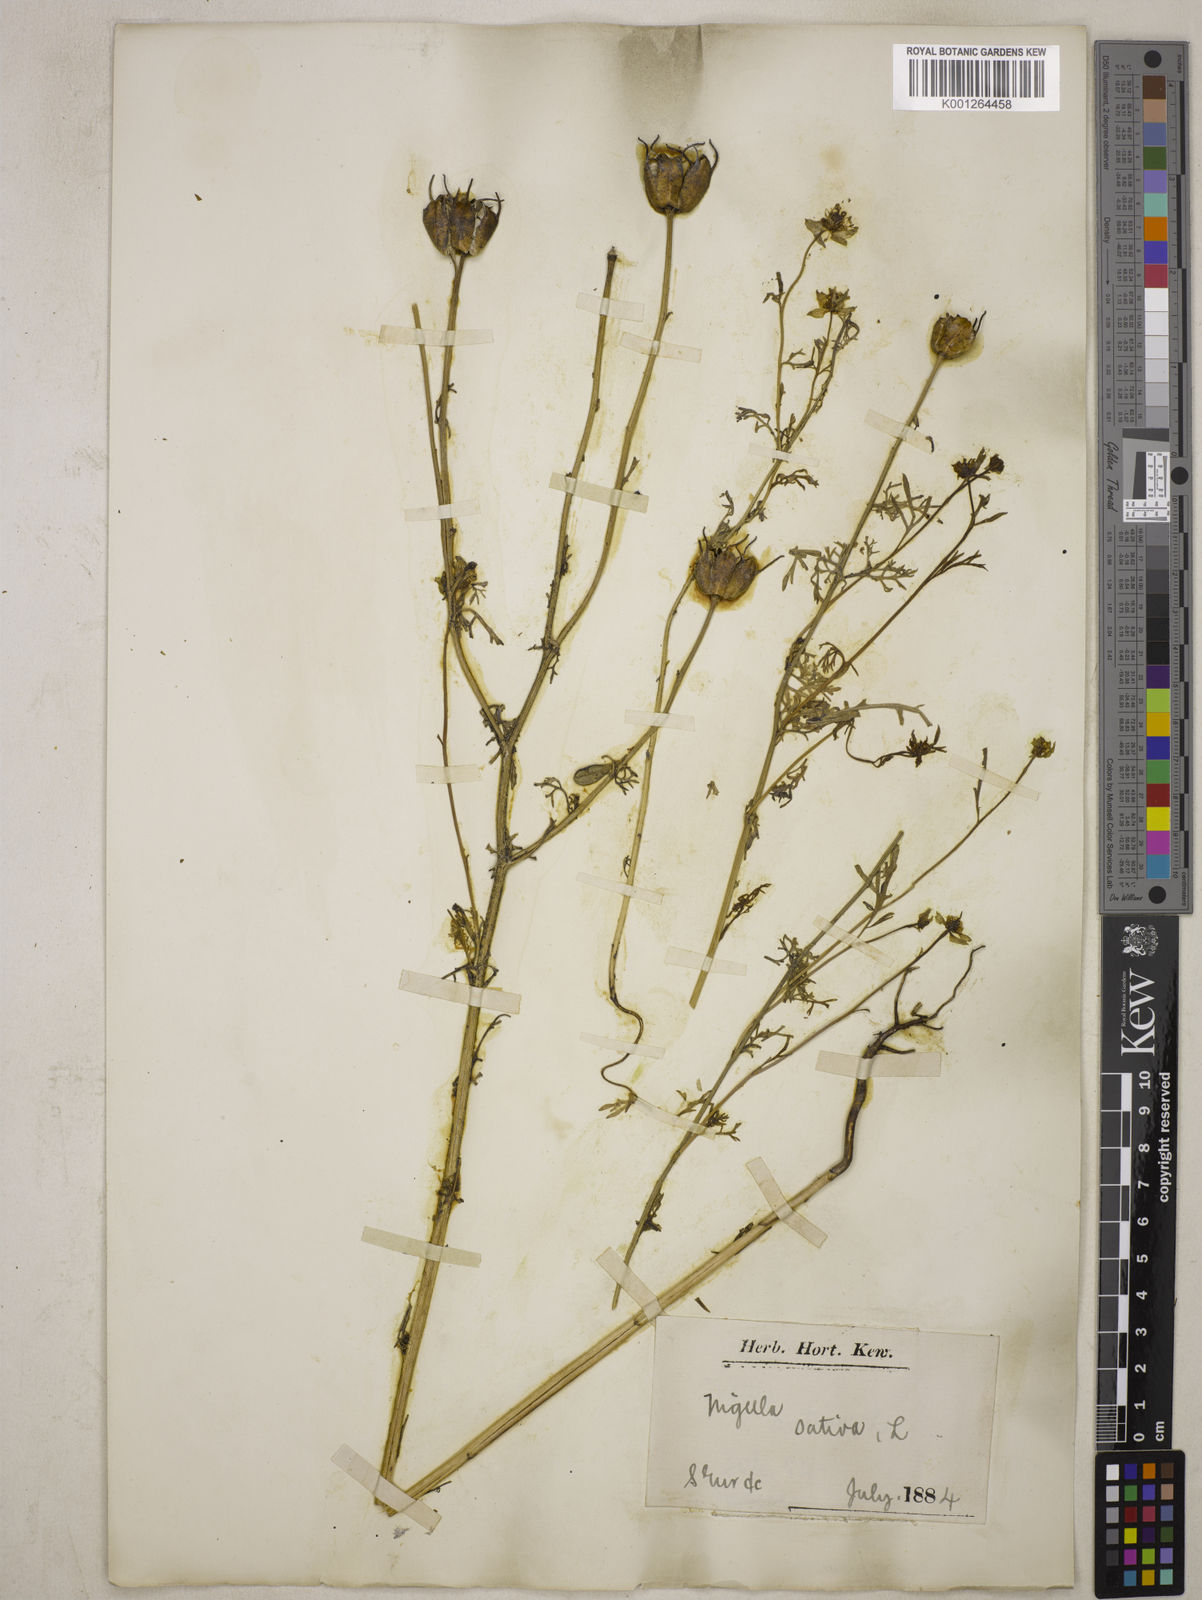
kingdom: Plantae
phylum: Tracheophyta
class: Magnoliopsida
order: Ranunculales
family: Ranunculaceae
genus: Nigella
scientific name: Nigella sativa
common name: Black-cumin
